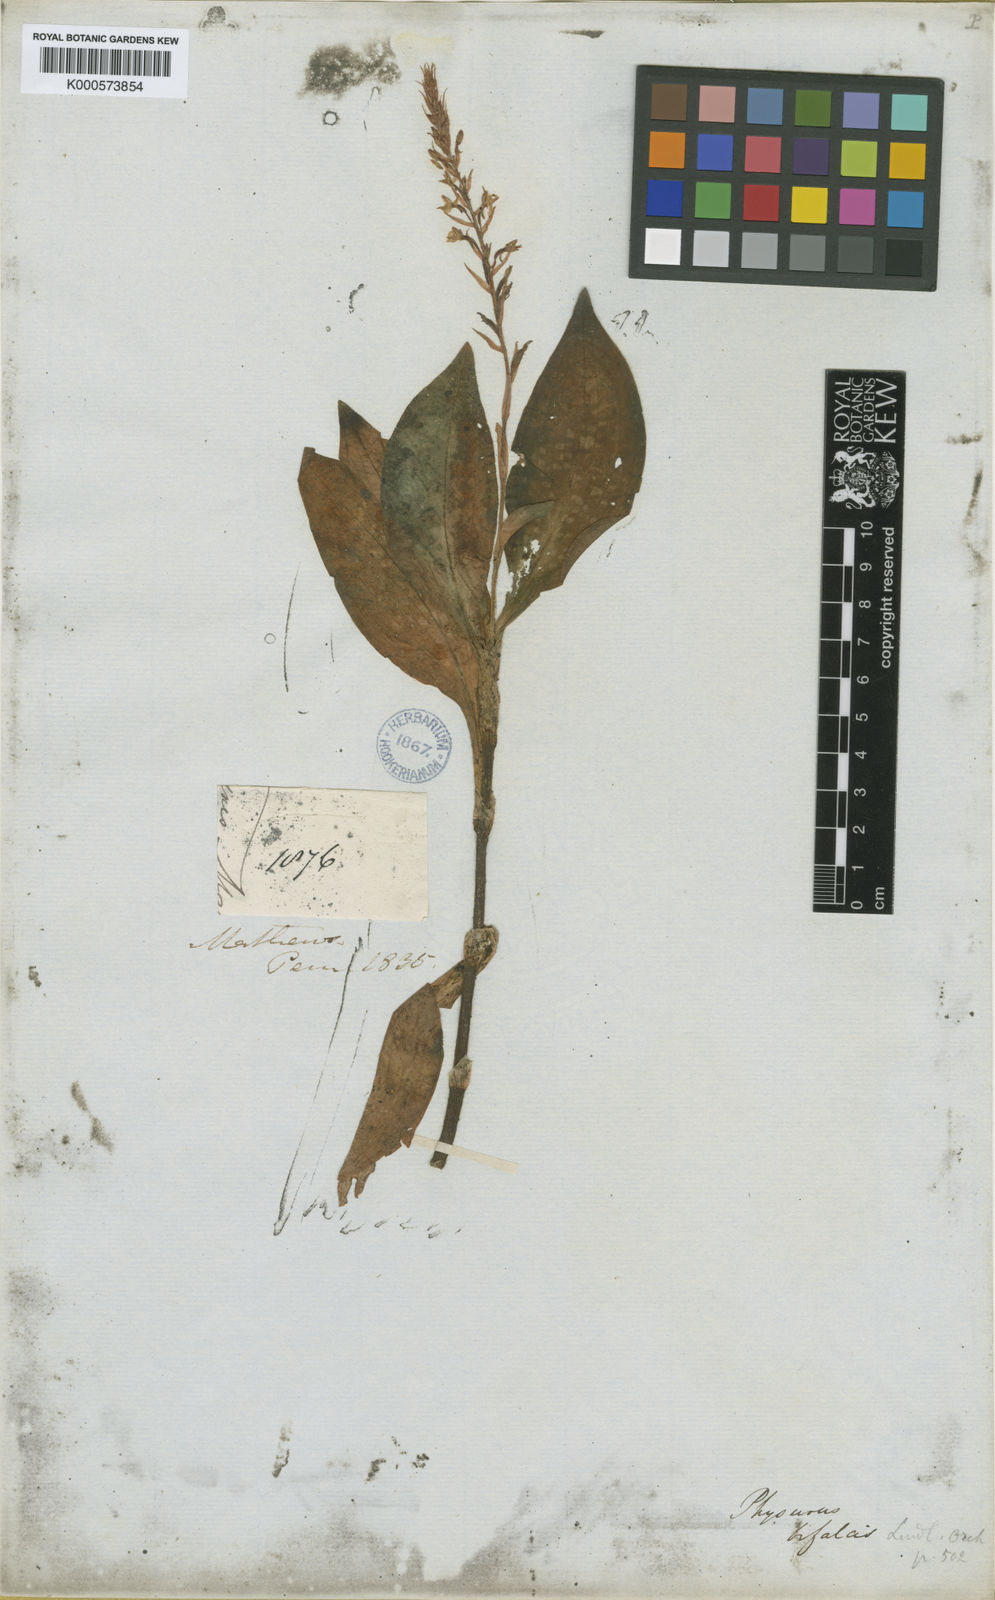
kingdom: Plantae
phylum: Tracheophyta
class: Liliopsida
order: Asparagales
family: Orchidaceae
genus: Aspidogyne
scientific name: Aspidogyne rosea
